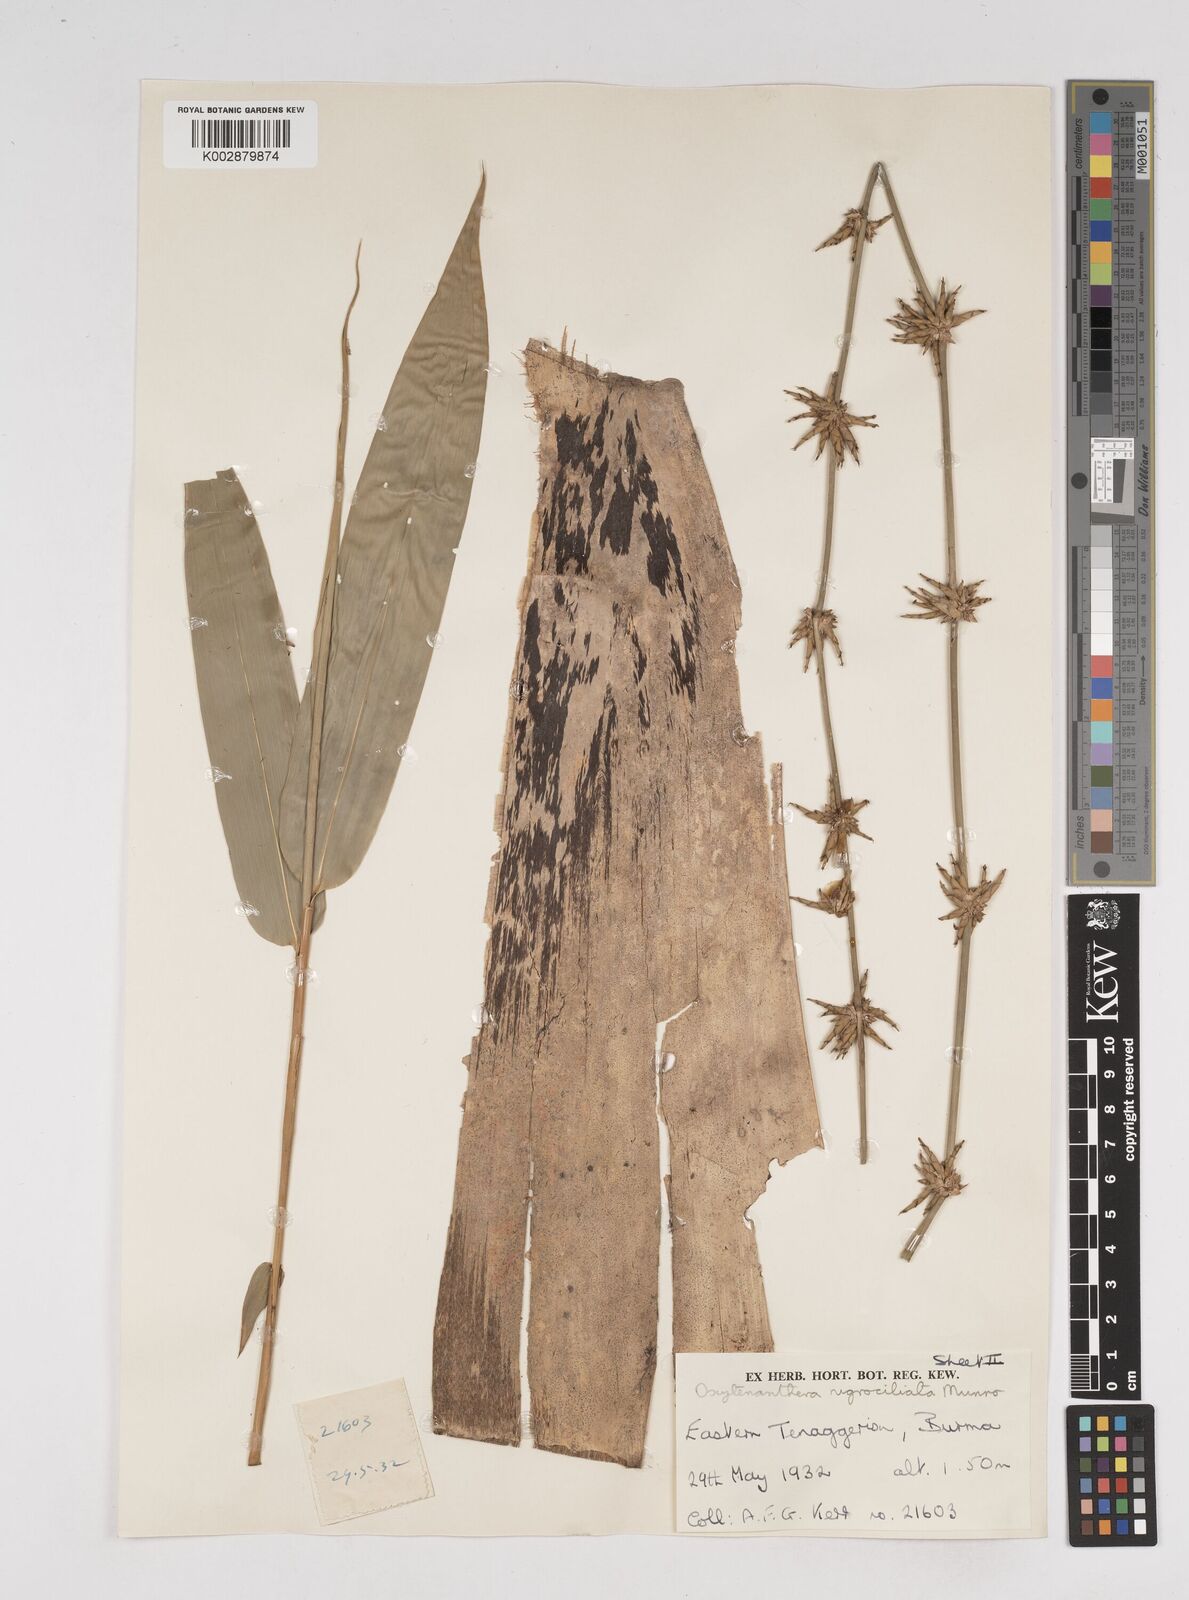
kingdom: Plantae
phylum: Tracheophyta
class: Liliopsida
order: Poales
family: Poaceae
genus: Gigantochloa
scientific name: Gigantochloa
